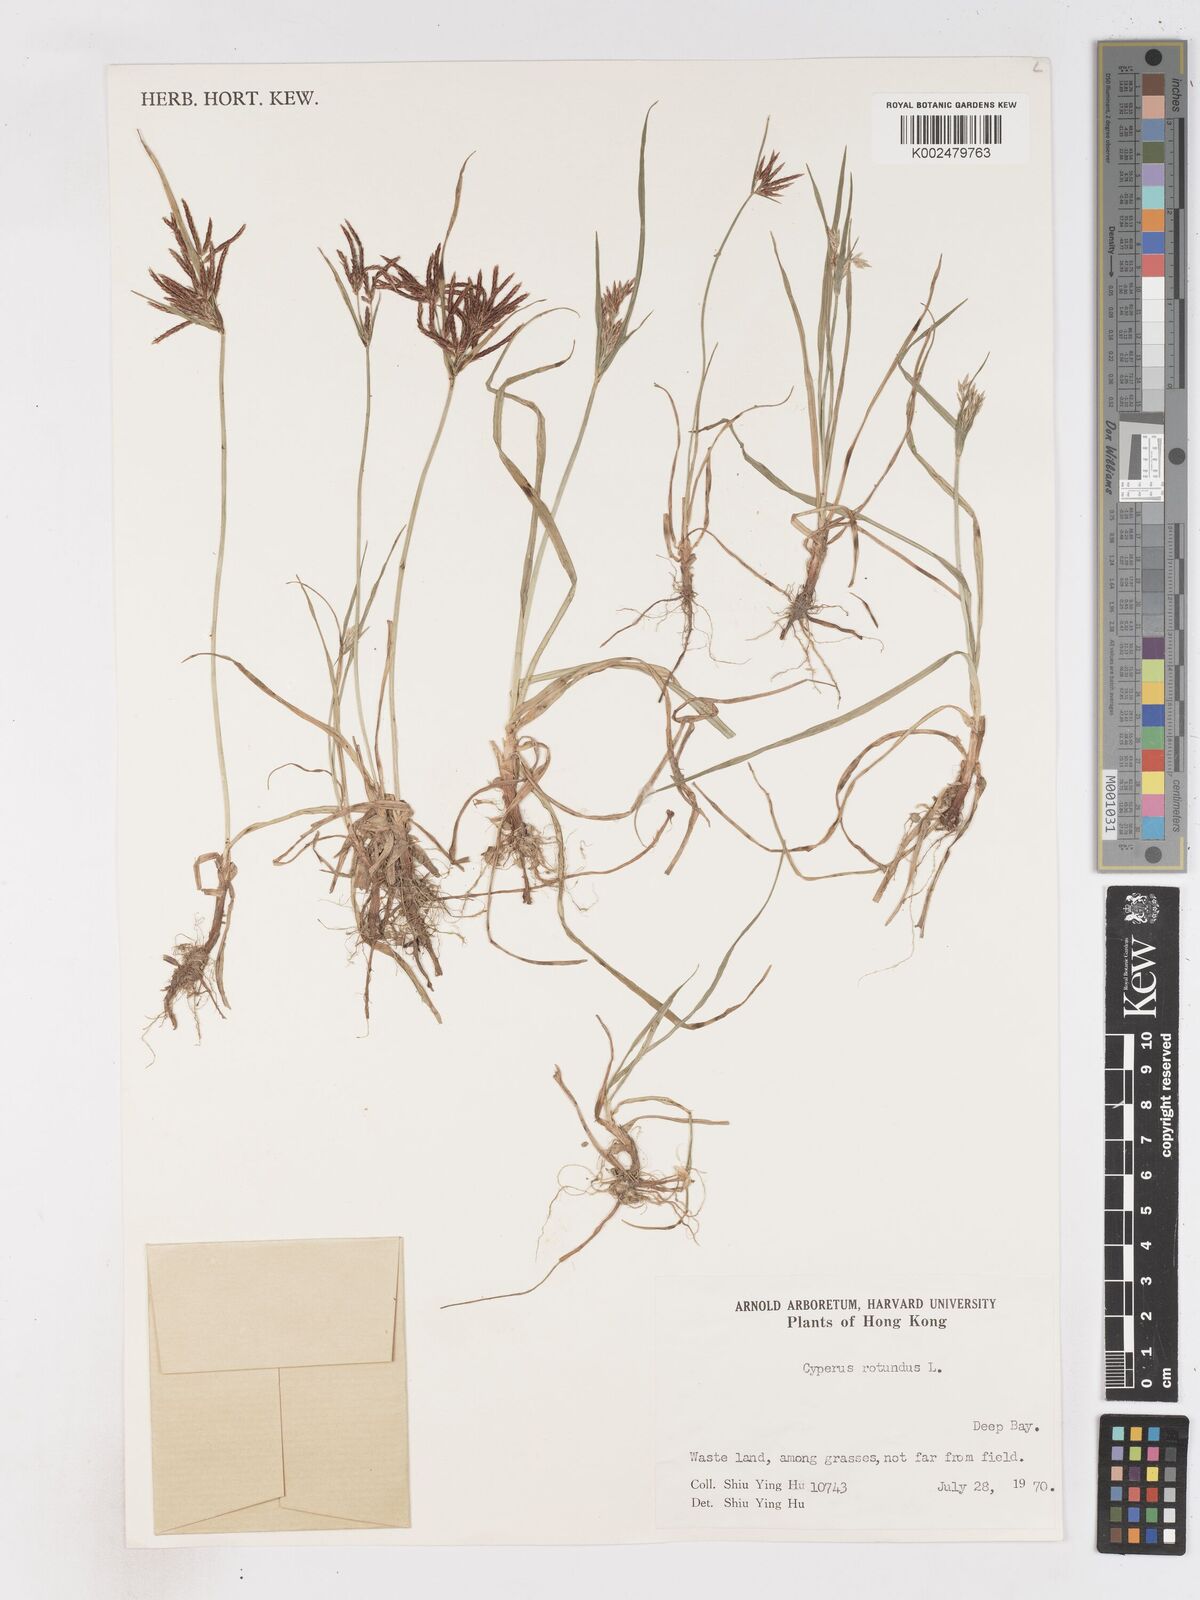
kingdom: Plantae
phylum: Tracheophyta
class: Liliopsida
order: Poales
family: Cyperaceae
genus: Cyperus
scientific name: Cyperus rotundus
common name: Nutgrass
